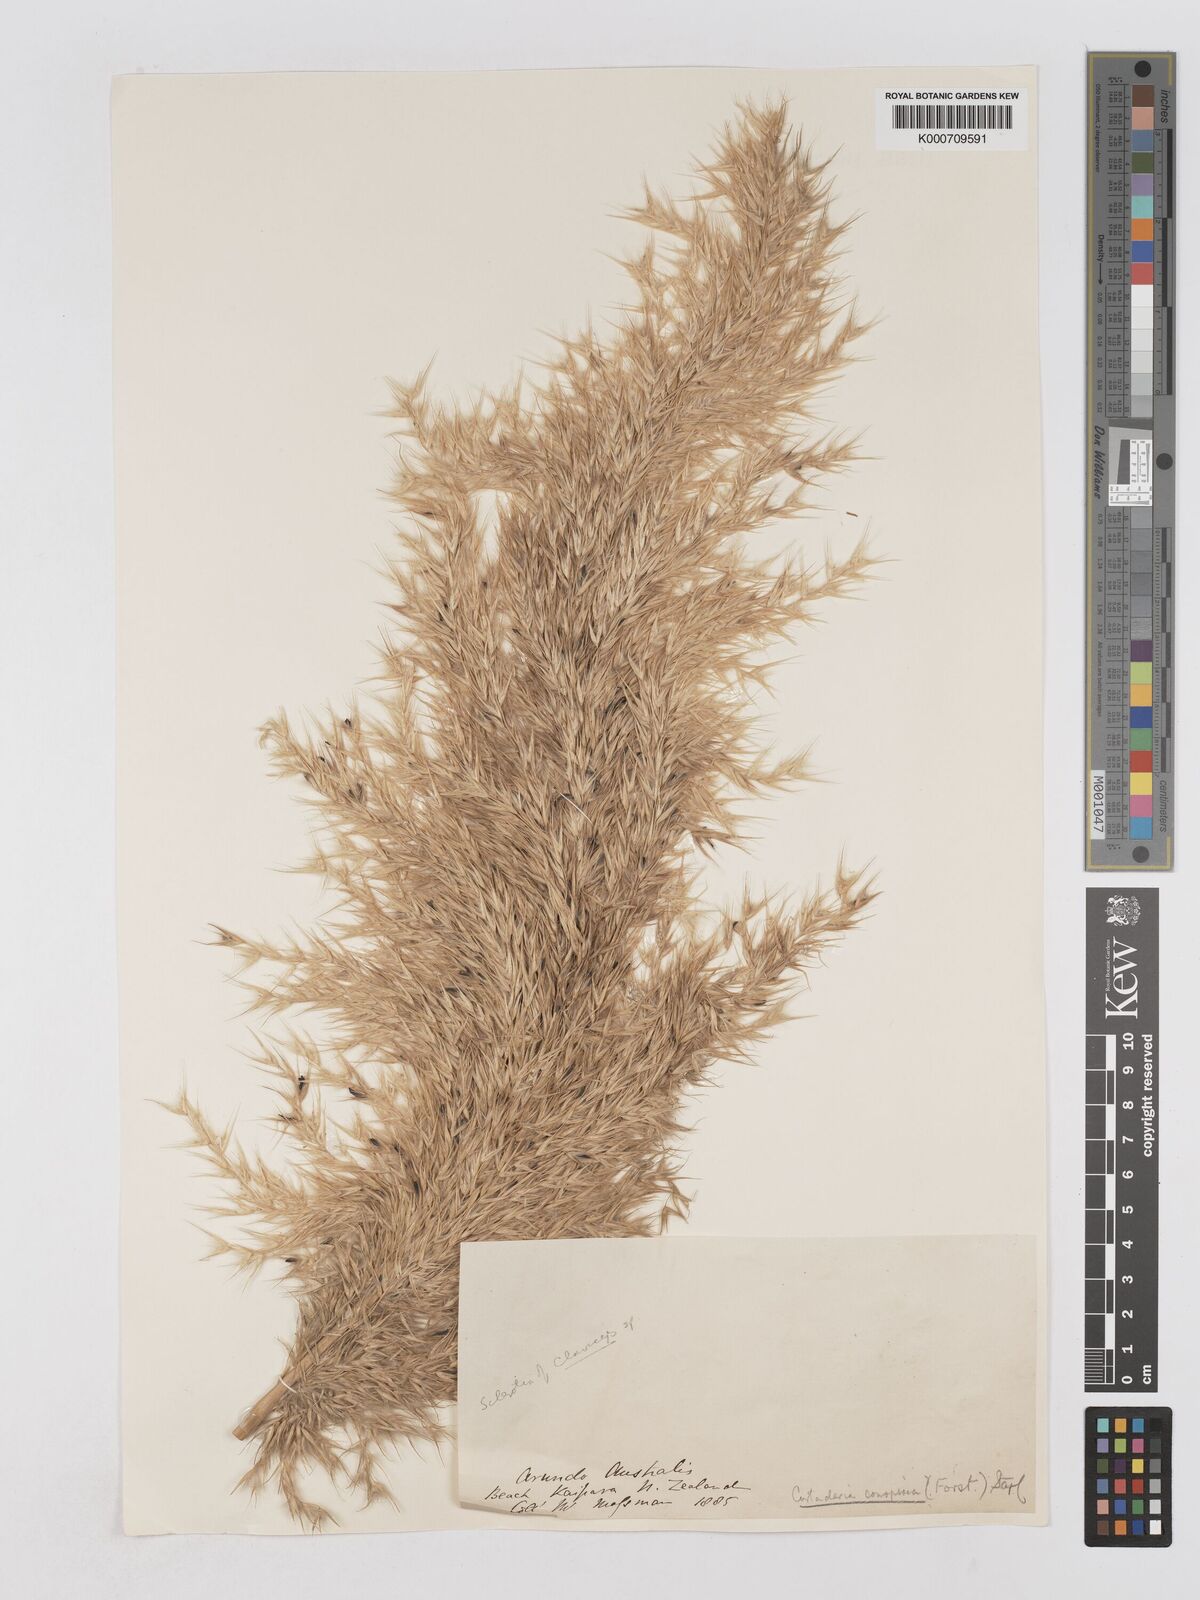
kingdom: Plantae
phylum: Tracheophyta
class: Liliopsida
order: Poales
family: Poaceae
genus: Austroderia
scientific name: Austroderia richardii
